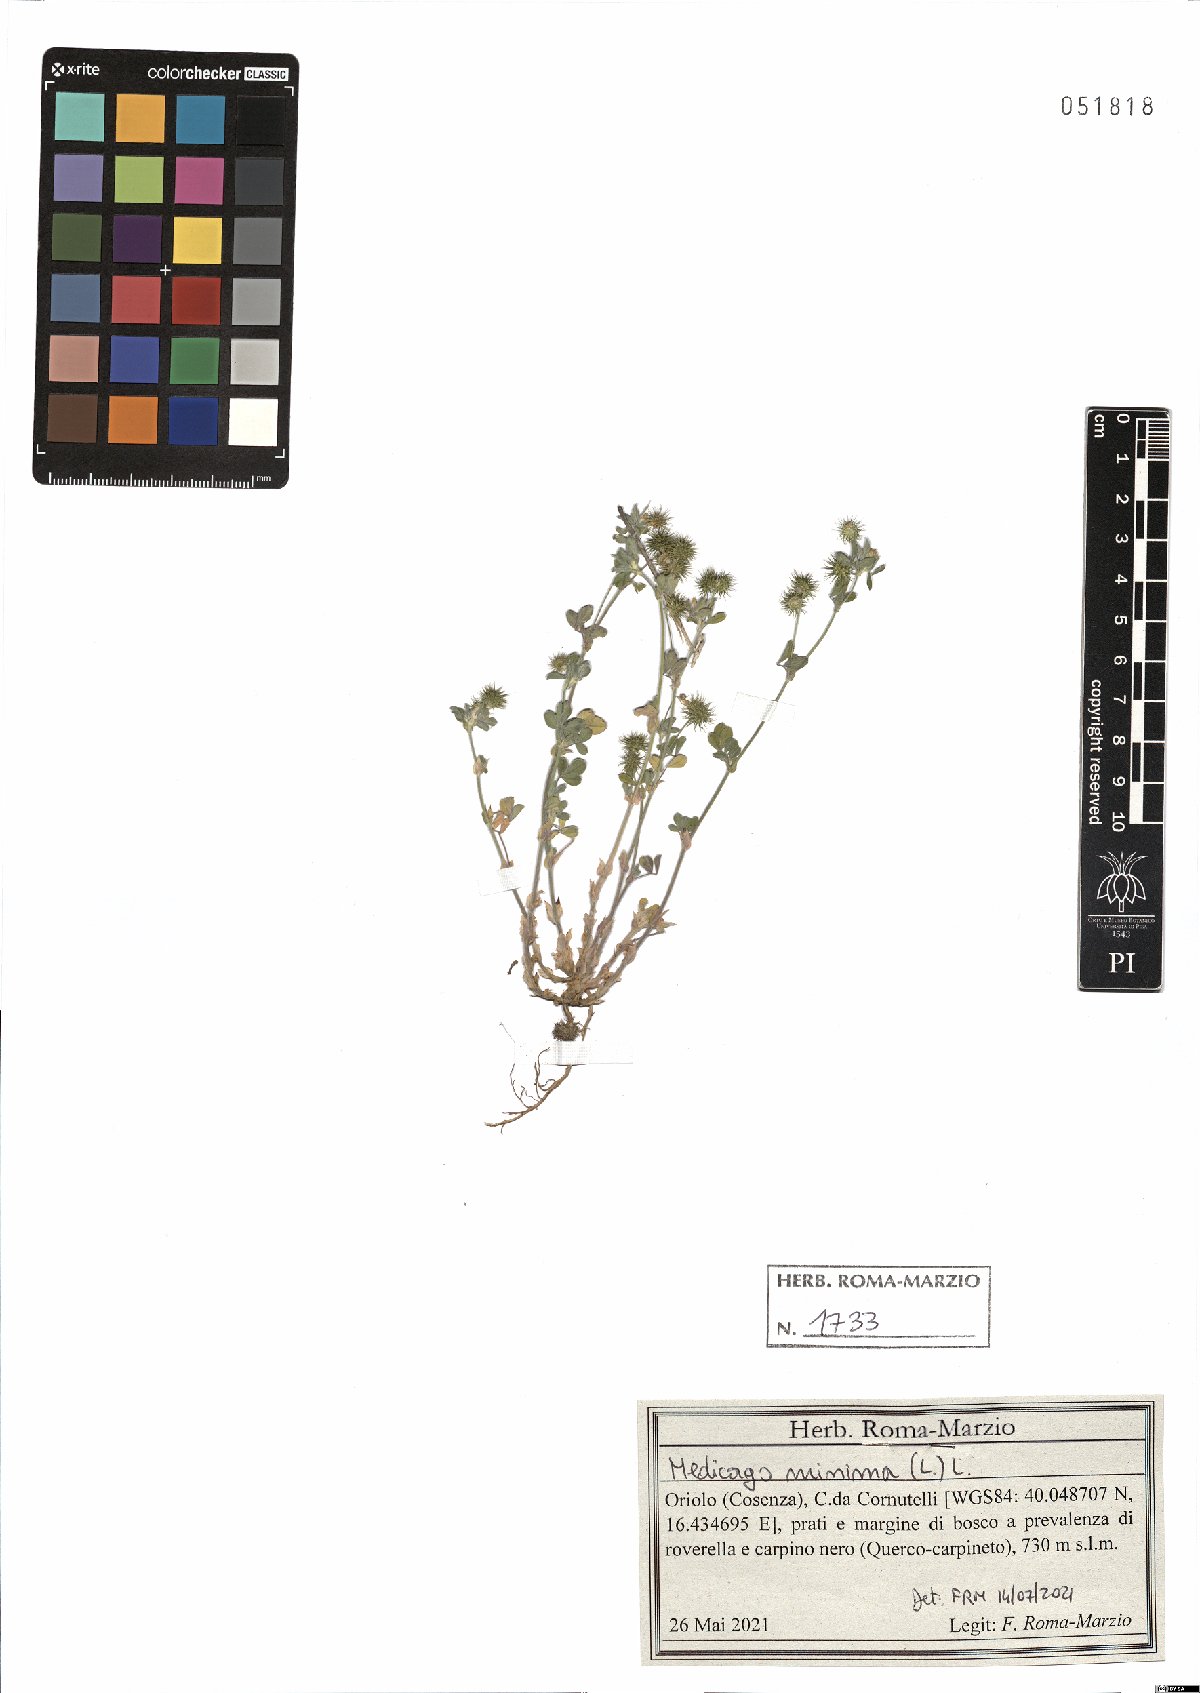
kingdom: Plantae
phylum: Tracheophyta
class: Magnoliopsida
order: Fabales
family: Fabaceae
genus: Medicago
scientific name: Medicago minima
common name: Little bur-clover
